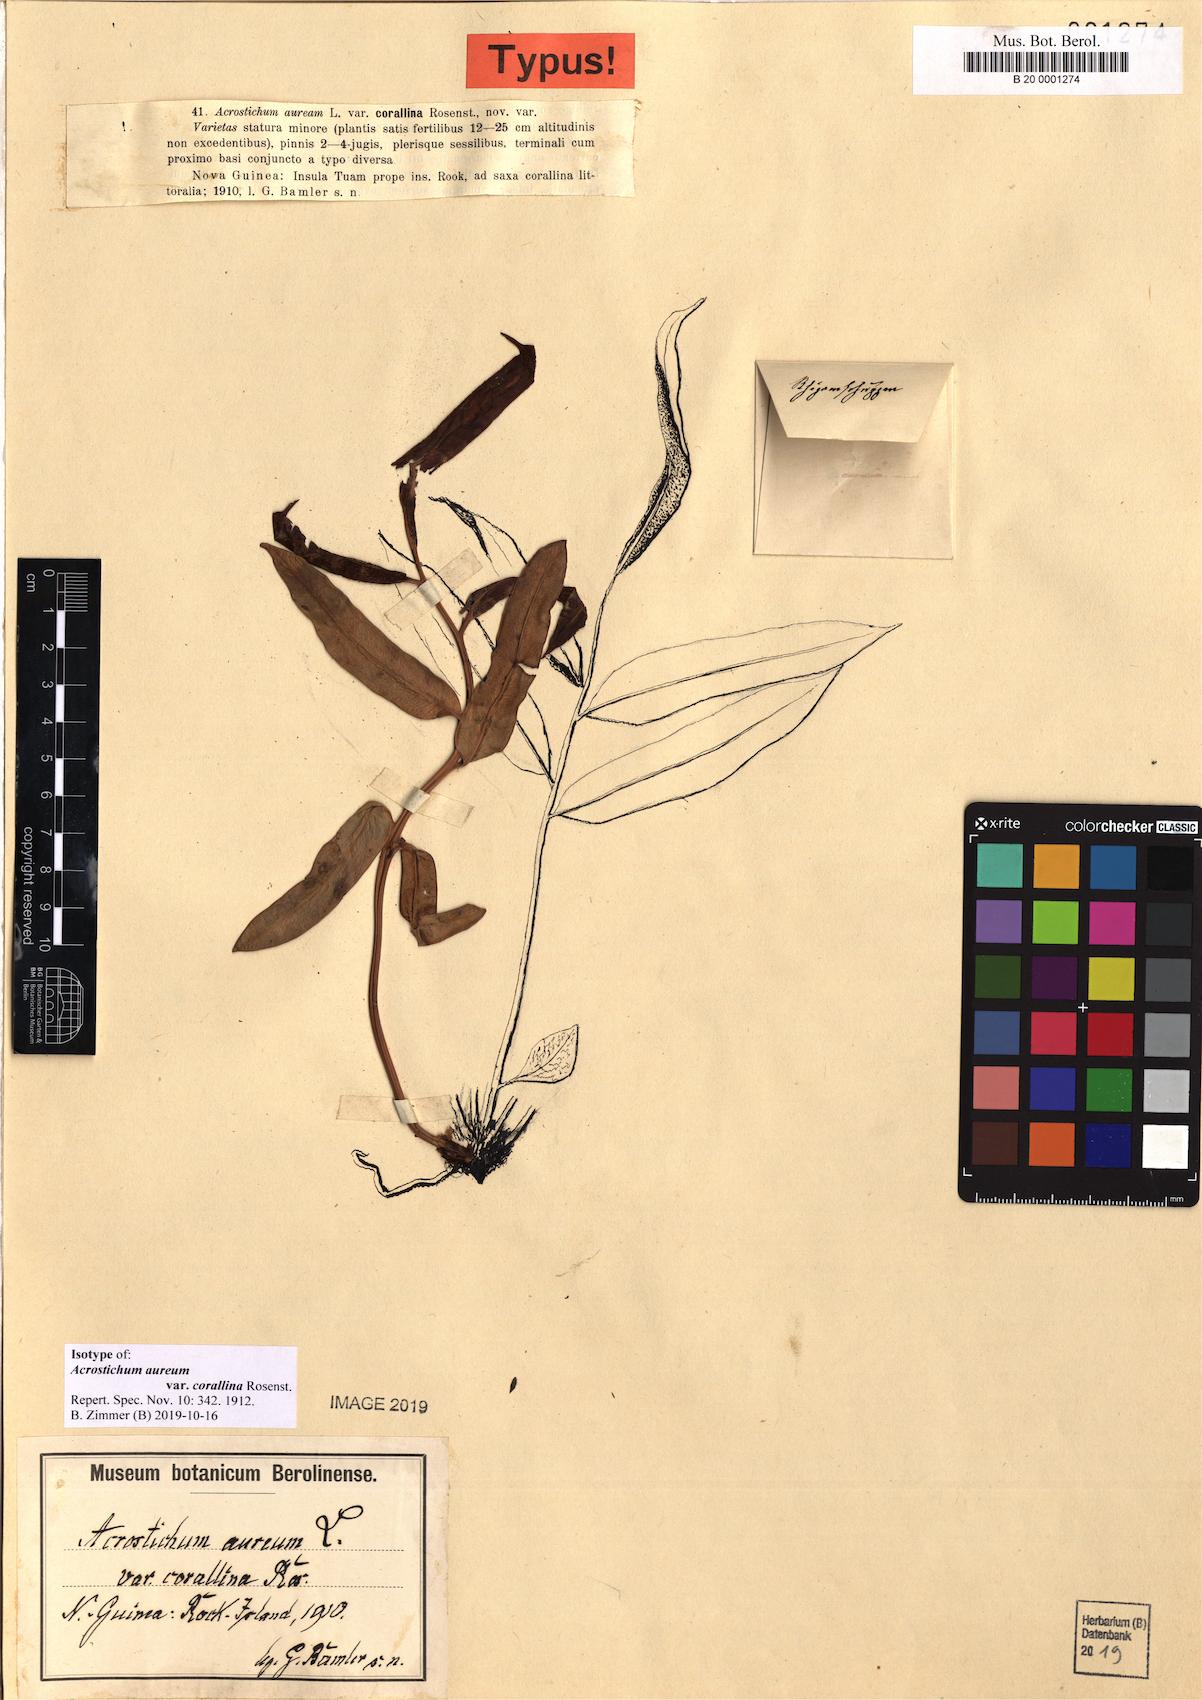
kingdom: Plantae
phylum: Tracheophyta
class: Polypodiopsida
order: Polypodiales
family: Aspleniaceae
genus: Hymenasplenium
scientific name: Hymenasplenium unilaterale
